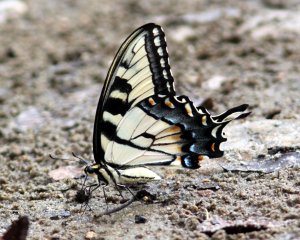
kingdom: Animalia
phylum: Arthropoda
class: Insecta
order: Lepidoptera
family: Papilionidae
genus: Pterourus
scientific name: Pterourus glaucus
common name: Eastern Tiger Swallowtail
